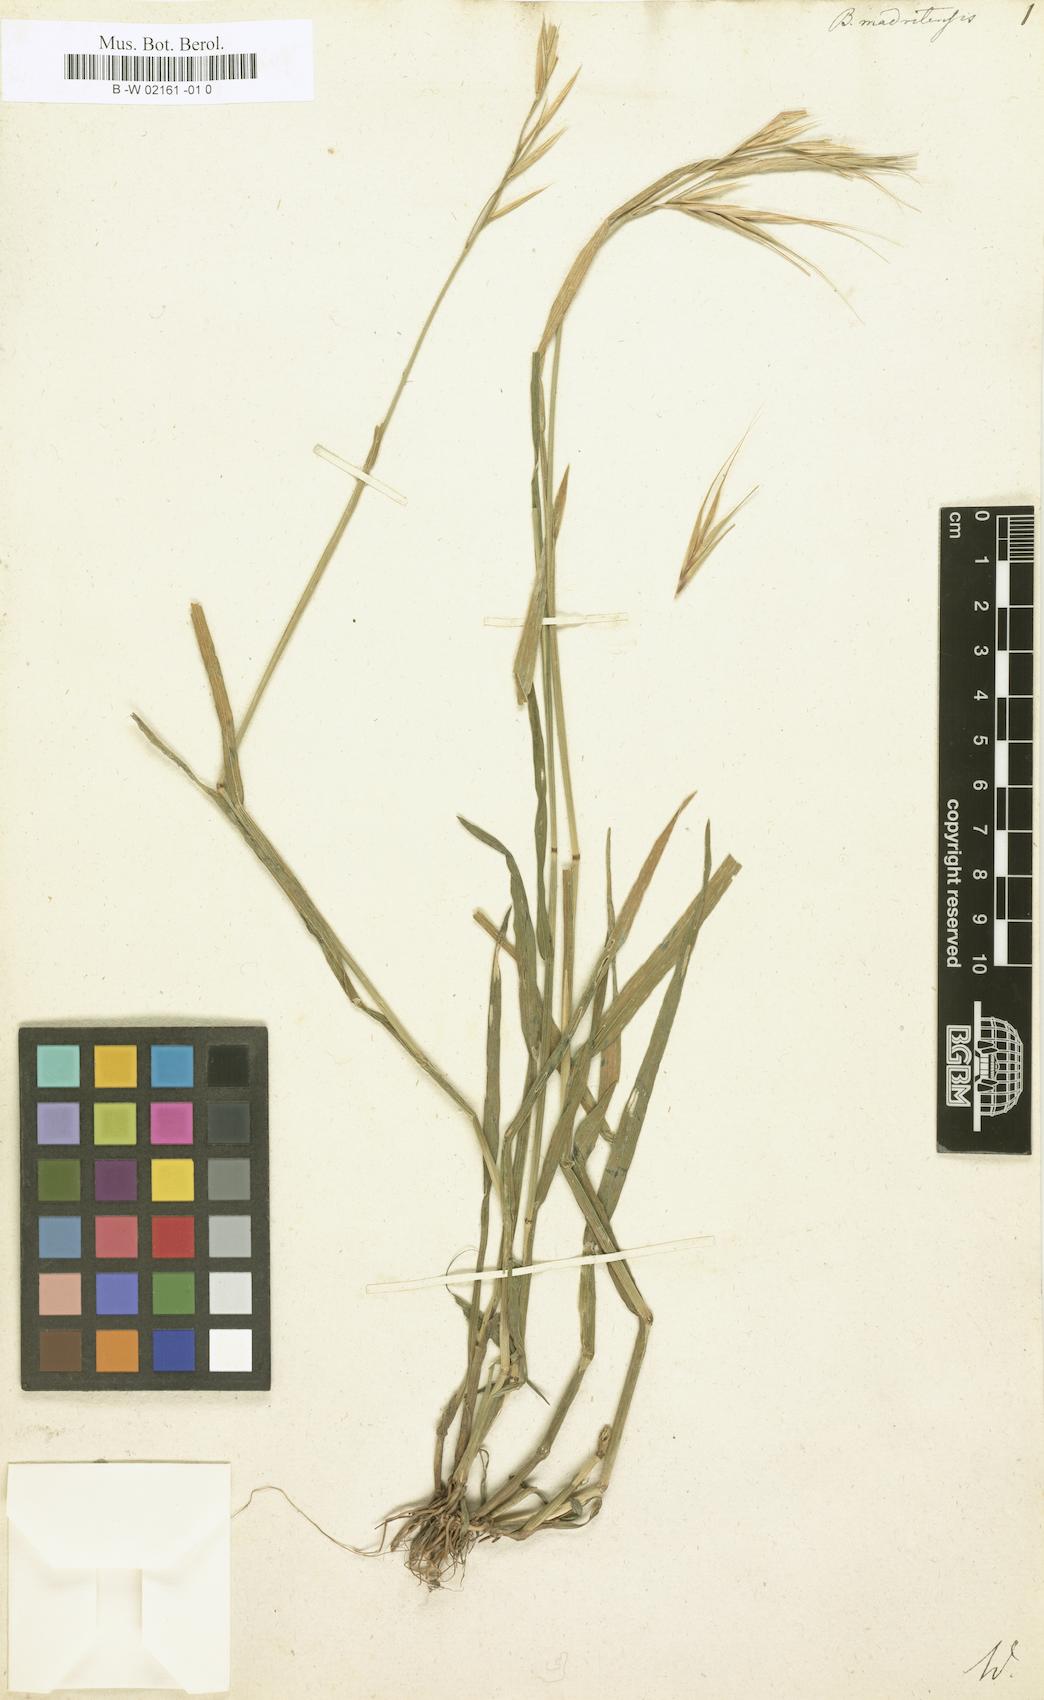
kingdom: Plantae
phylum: Tracheophyta
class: Liliopsida
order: Poales
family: Poaceae
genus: Bromus
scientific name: Bromus madritensis
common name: Compact brome
